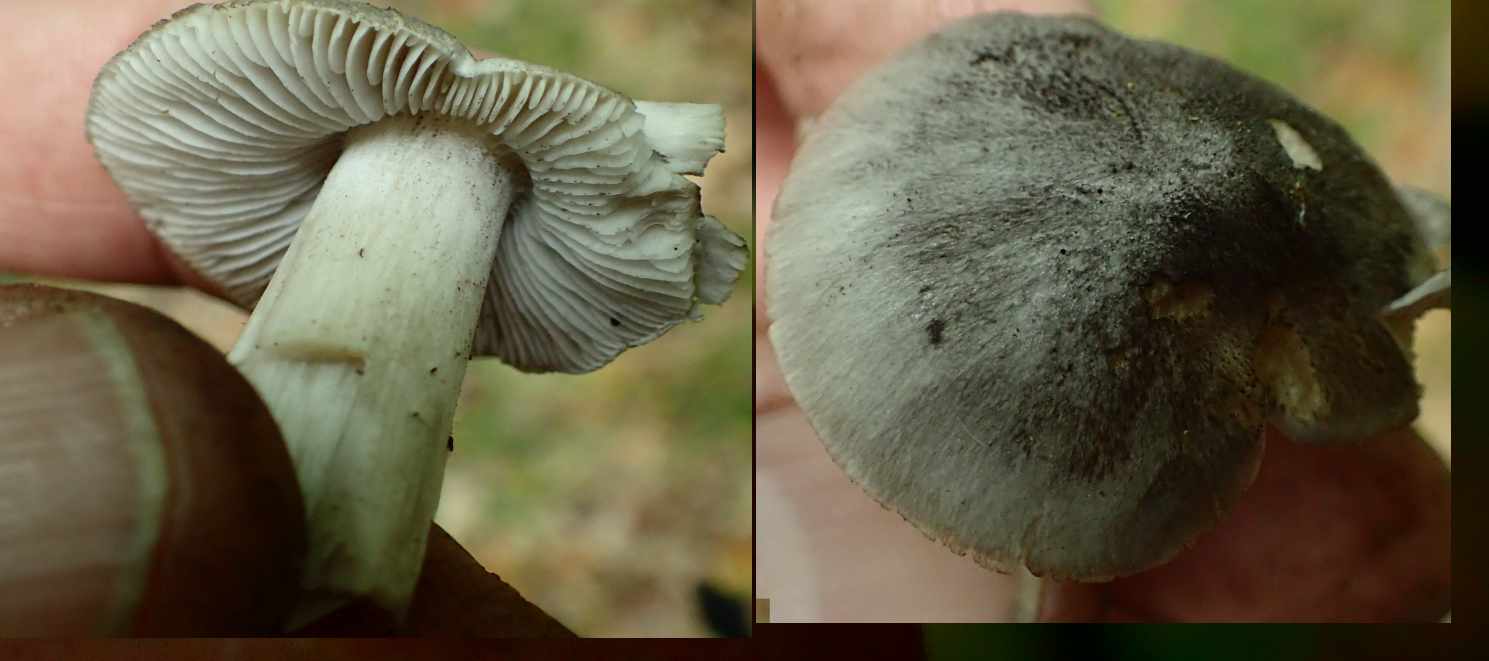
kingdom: Fungi
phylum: Basidiomycota
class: Agaricomycetes
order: Agaricales
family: Tricholomataceae
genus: Tricholoma
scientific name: Tricholoma sciodes
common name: stribet ridderhat
